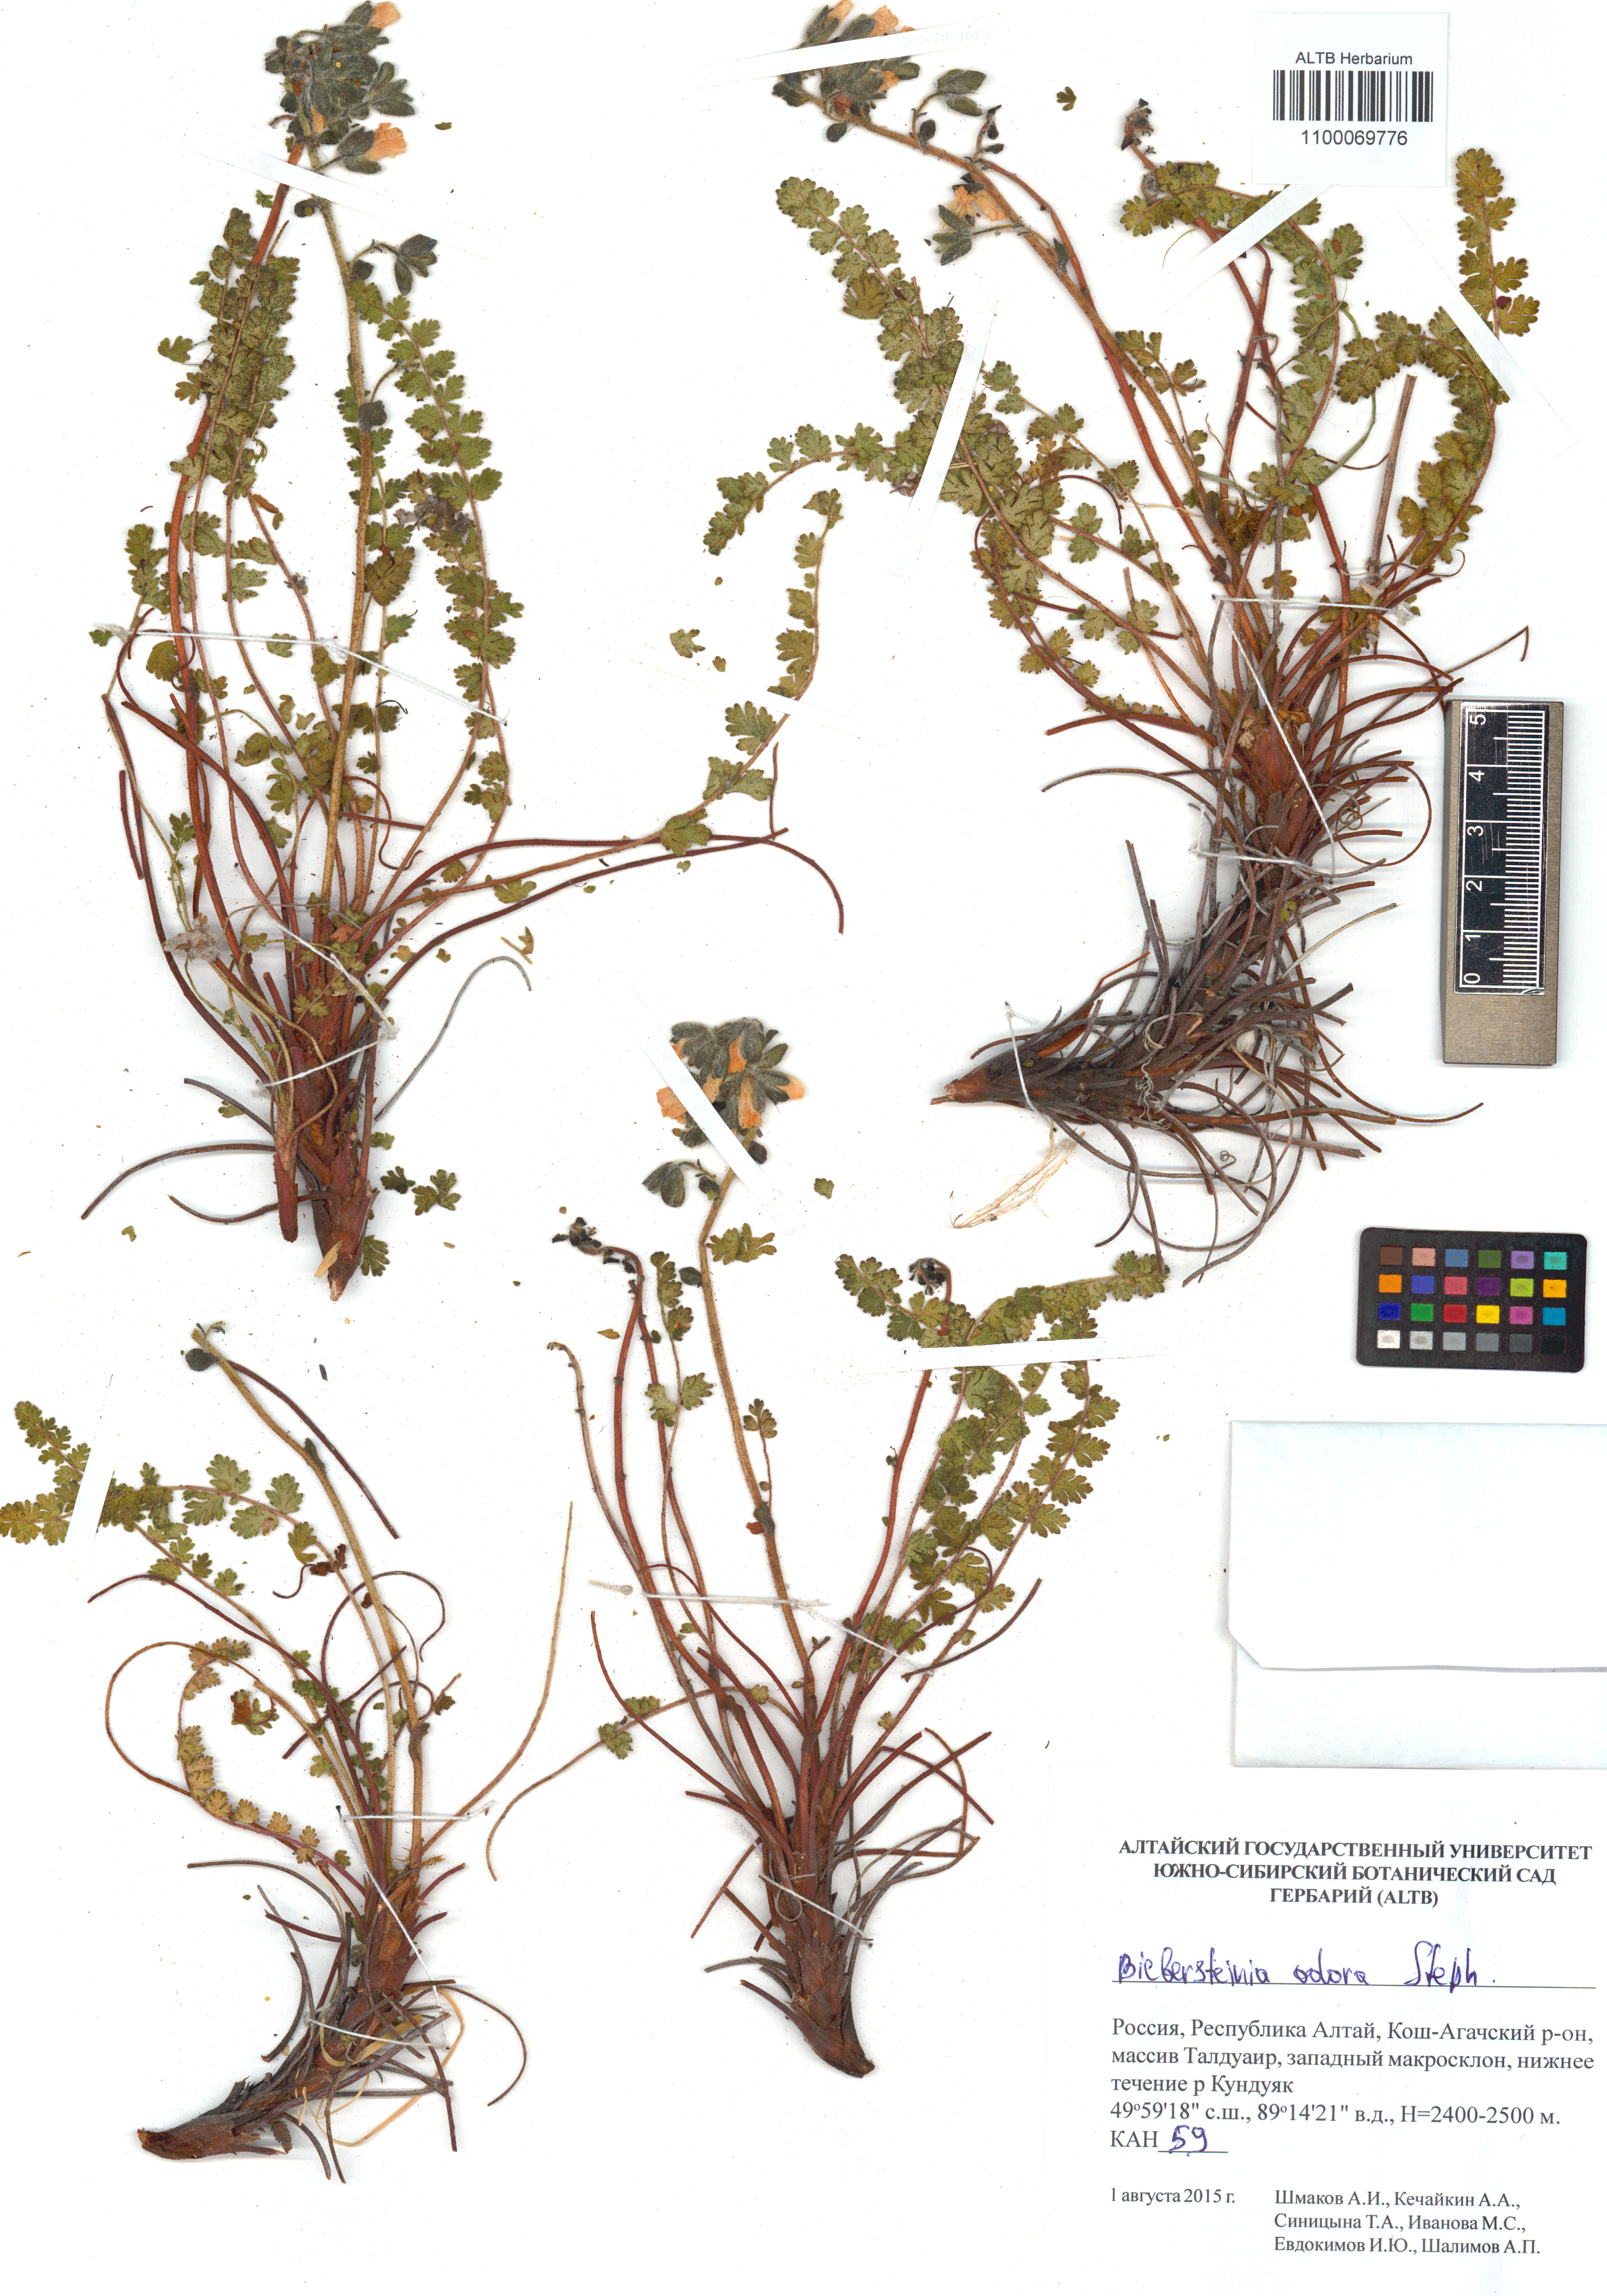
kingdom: Plantae
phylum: Tracheophyta
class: Magnoliopsida
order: Sapindales
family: Biebersteiniaceae
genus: Biebersteinia
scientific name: Biebersteinia odora
